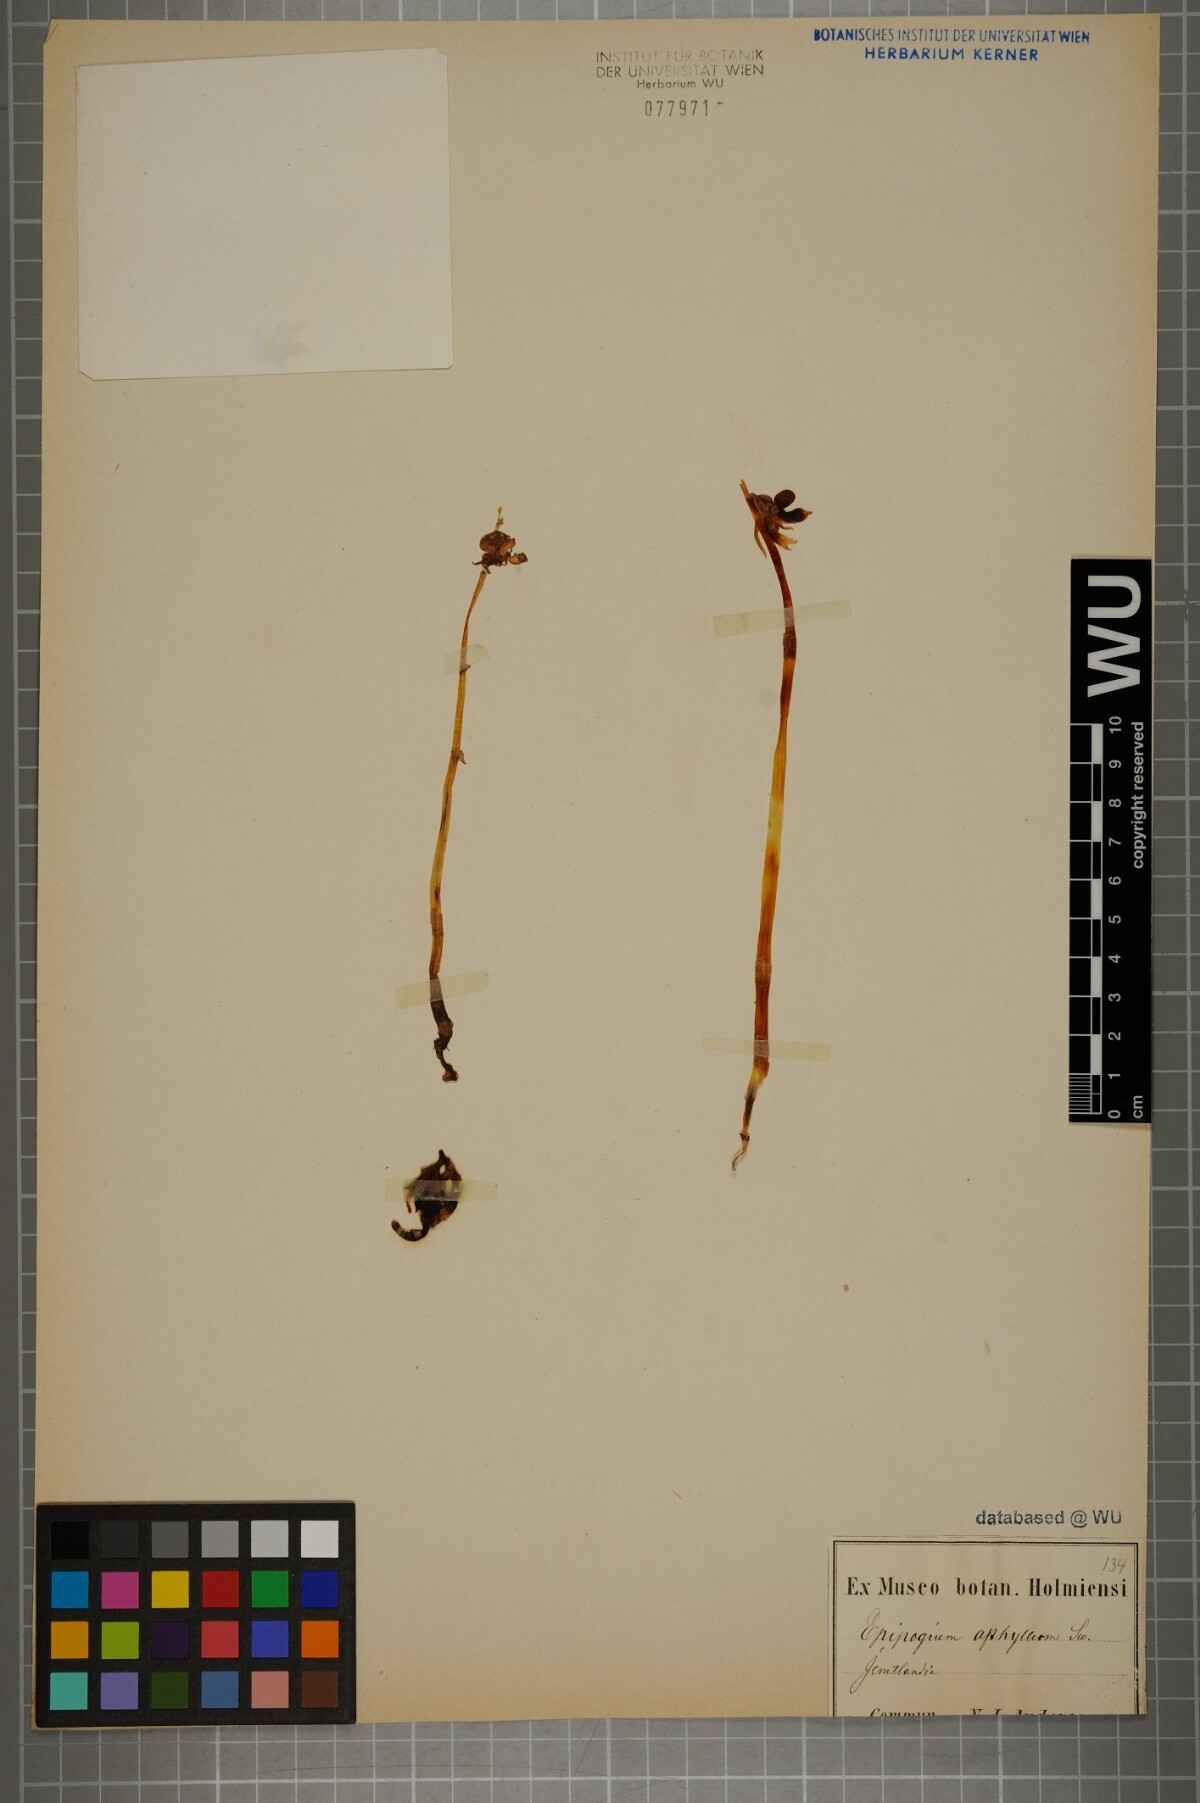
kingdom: Plantae
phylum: Tracheophyta
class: Liliopsida
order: Asparagales
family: Orchidaceae
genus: Epipogium
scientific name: Epipogium aphyllum
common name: Ghost orchid
